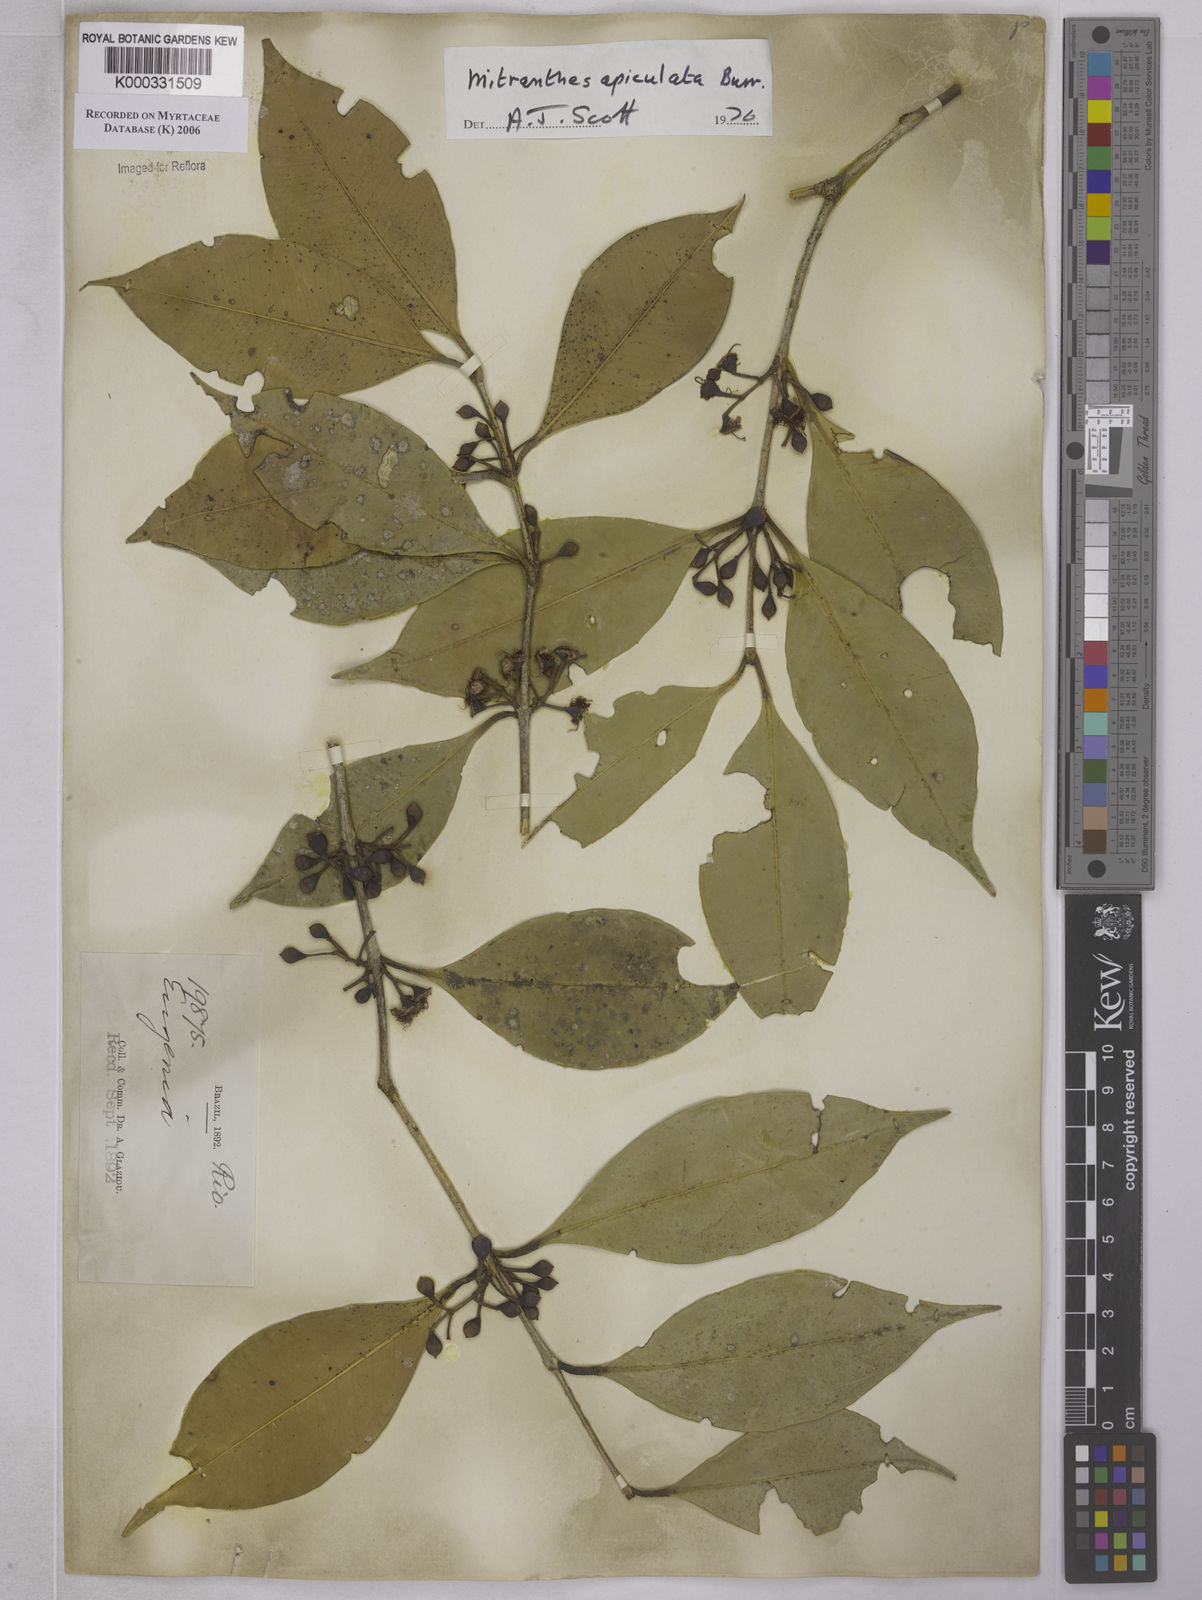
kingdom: Plantae
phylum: Tracheophyta
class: Magnoliopsida
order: Myrtales
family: Myrtaceae
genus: Neomitranthes
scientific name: Neomitranthes apiculata
